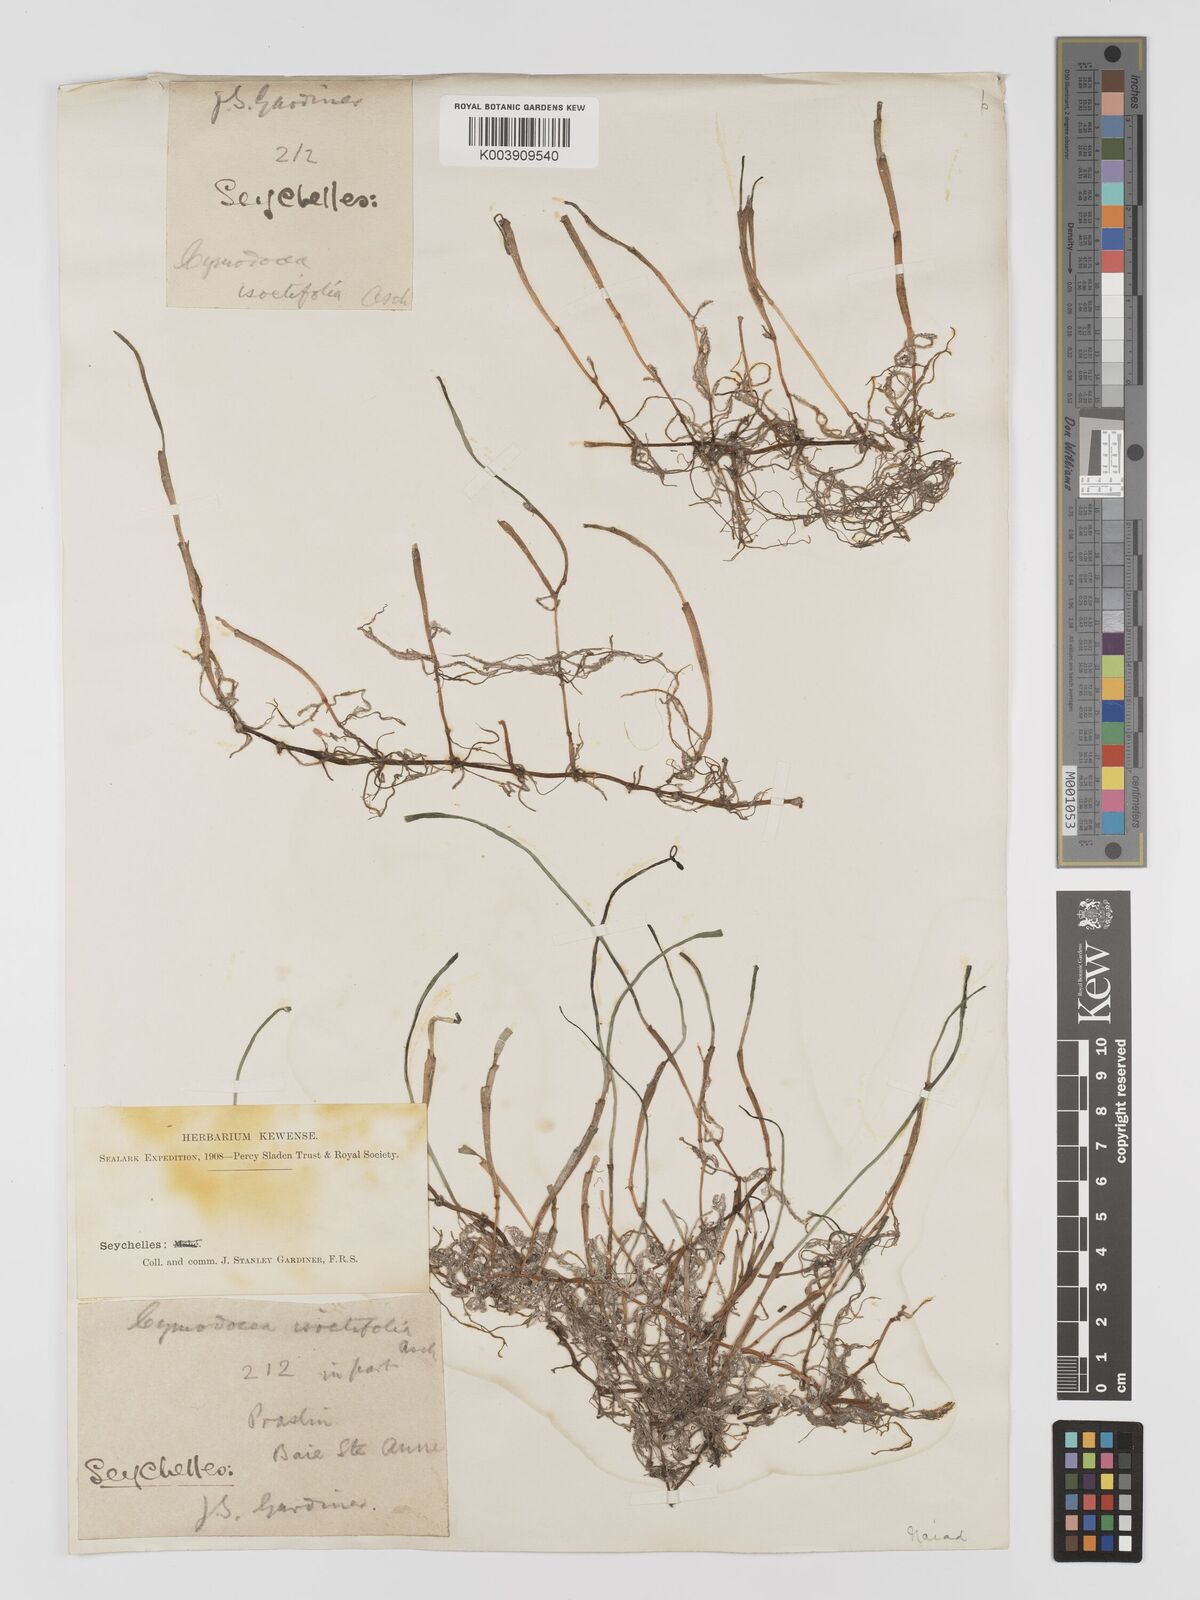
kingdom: Plantae
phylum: Tracheophyta
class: Liliopsida
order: Alismatales
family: Cymodoceaceae
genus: Syringodium
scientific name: Syringodium isoetifolium
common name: Species code: si
